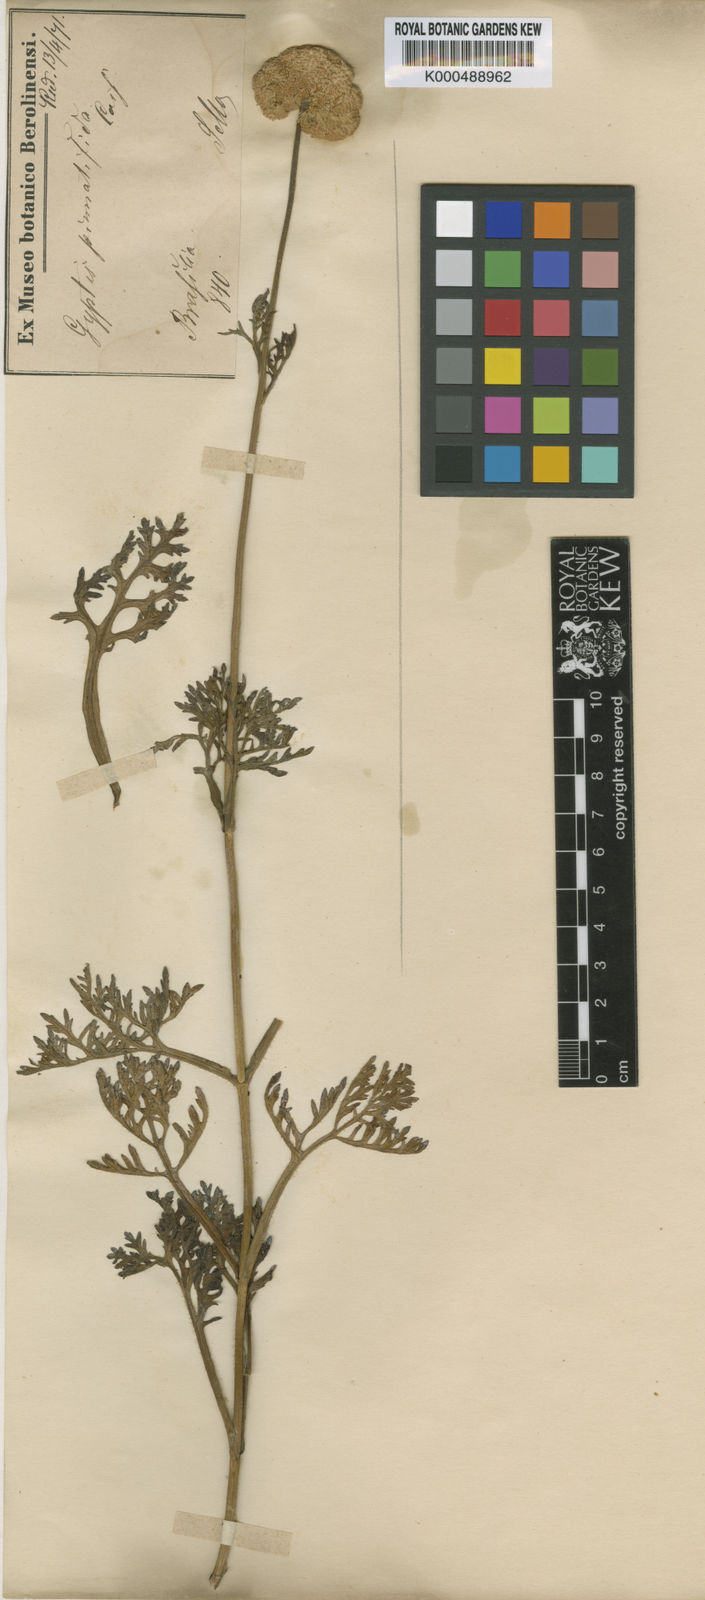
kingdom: Plantae
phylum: Tracheophyta
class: Magnoliopsida
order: Asterales
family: Asteraceae
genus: Gyptis
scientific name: Gyptis pinnatifida
